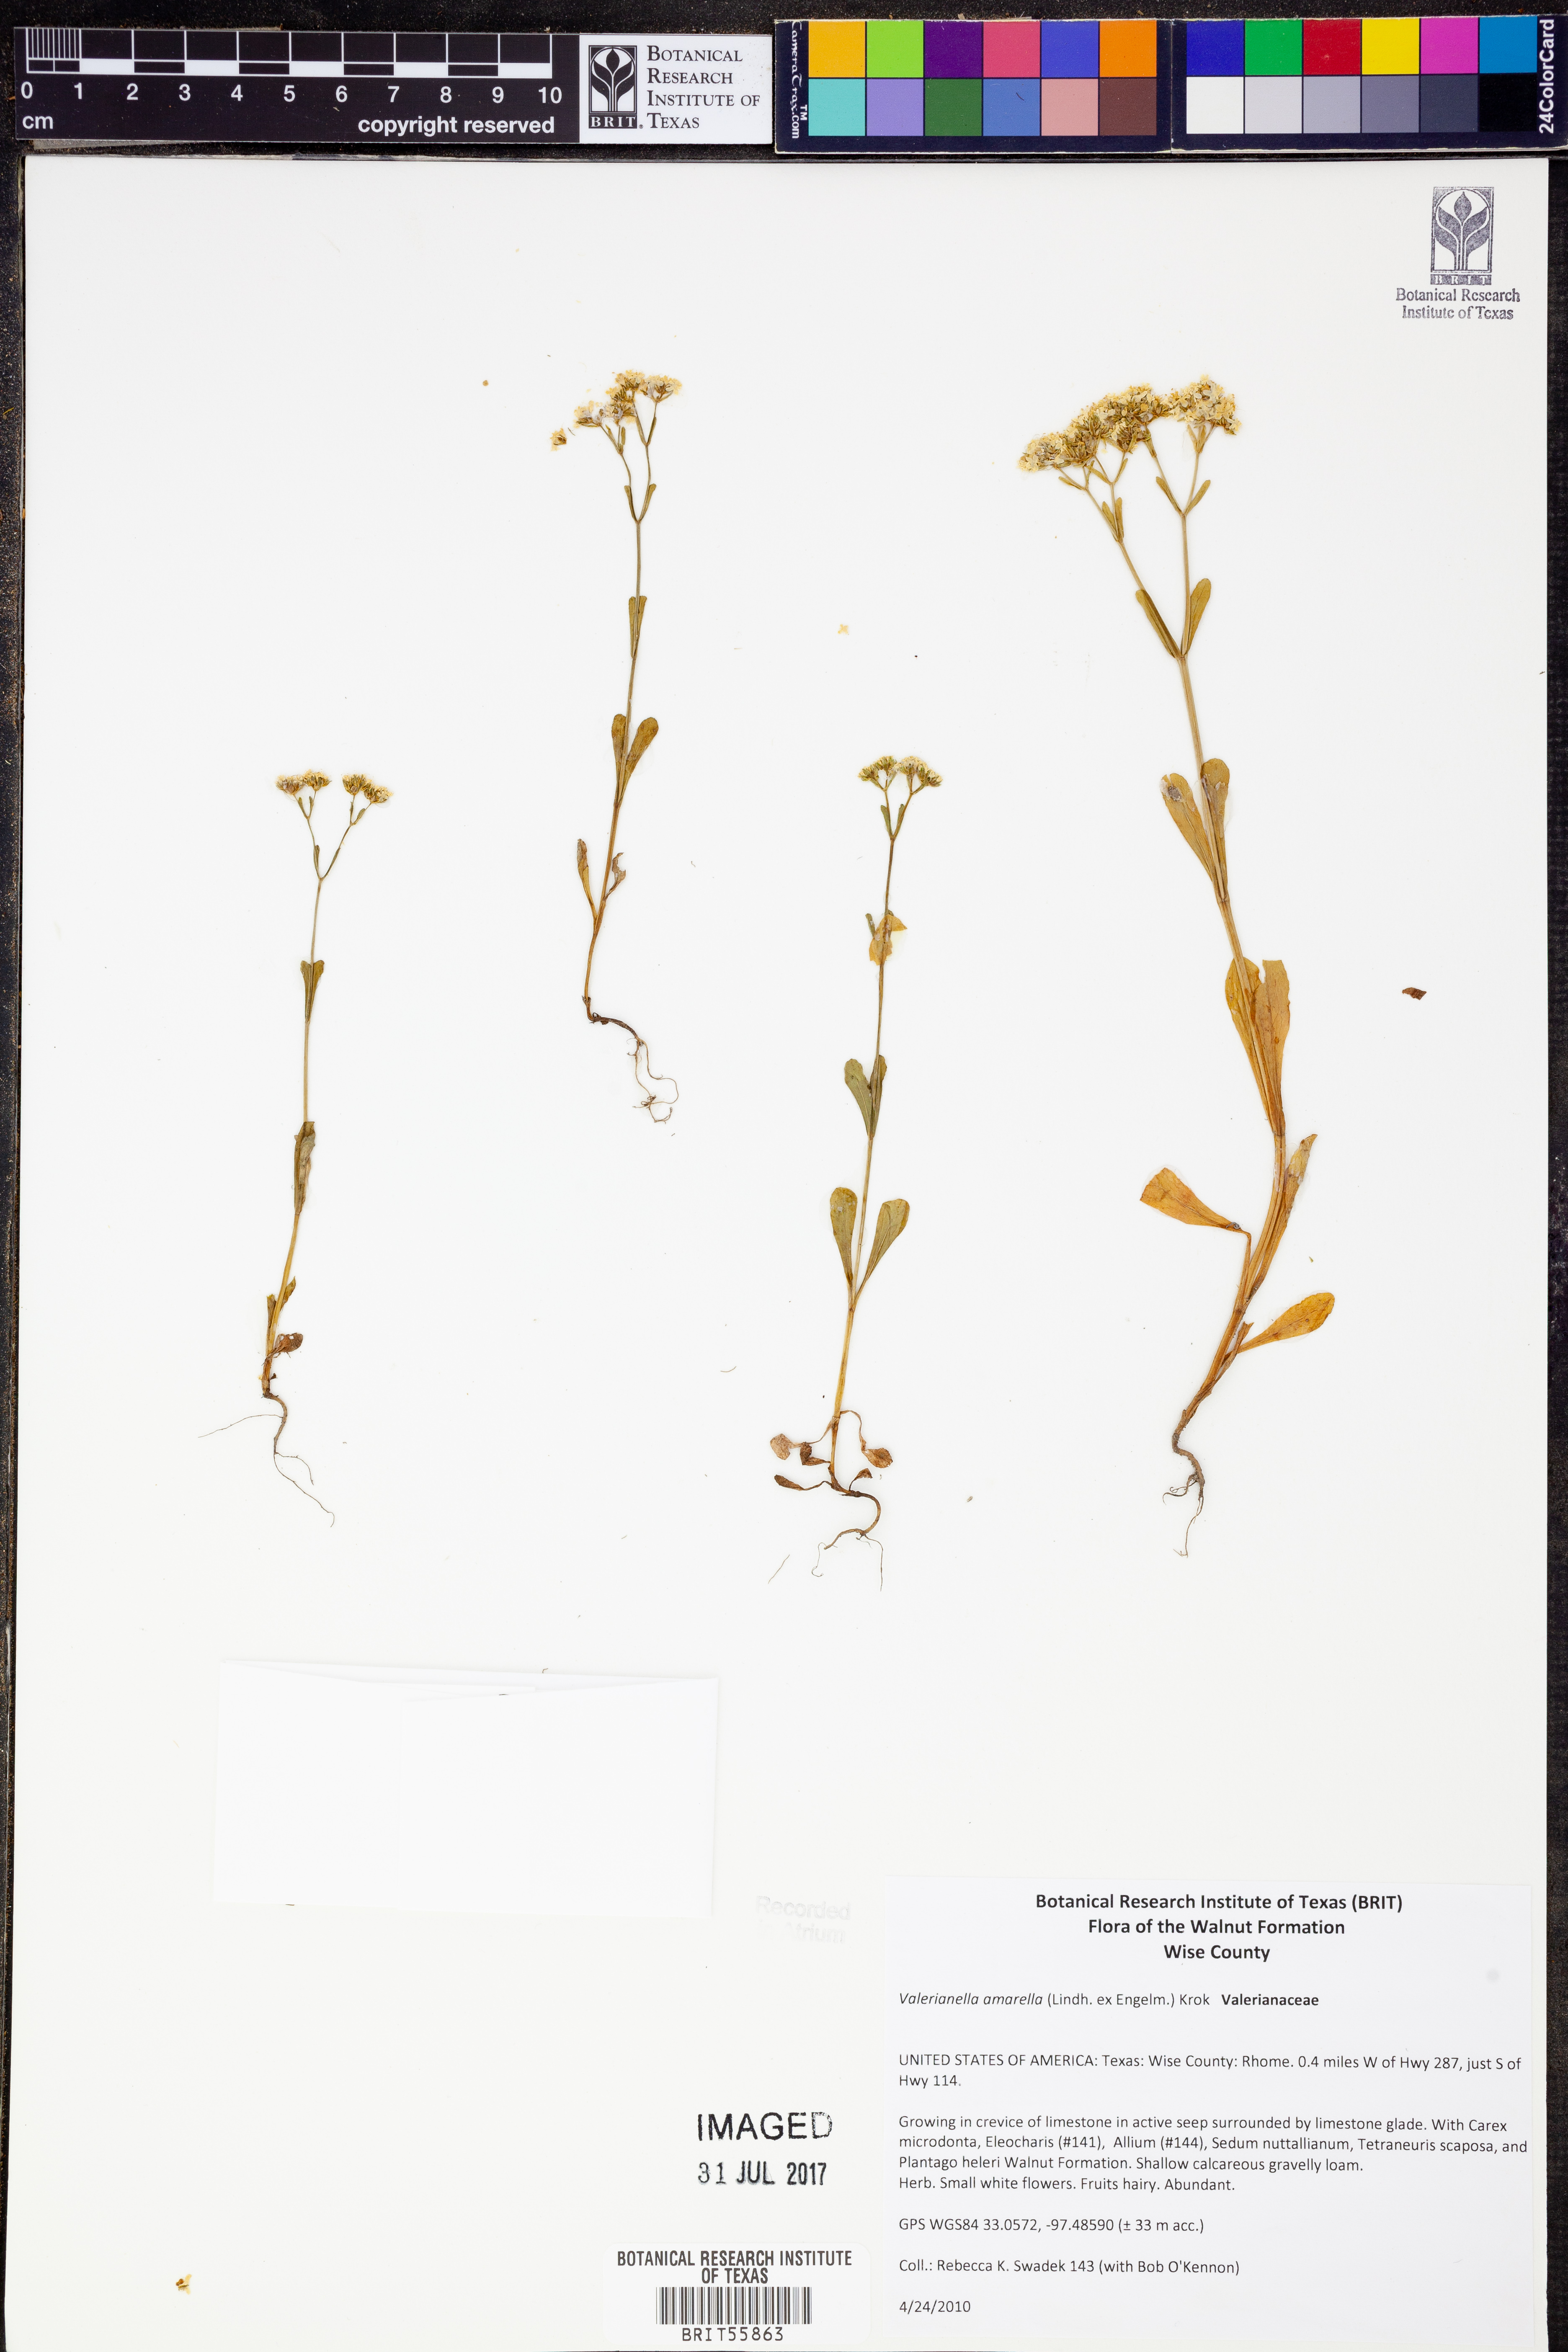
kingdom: Plantae
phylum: Tracheophyta
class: Magnoliopsida
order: Dipsacales
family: Caprifoliaceae
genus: Valerianella
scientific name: Valerianella amarella
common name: Hariy cornsalad
